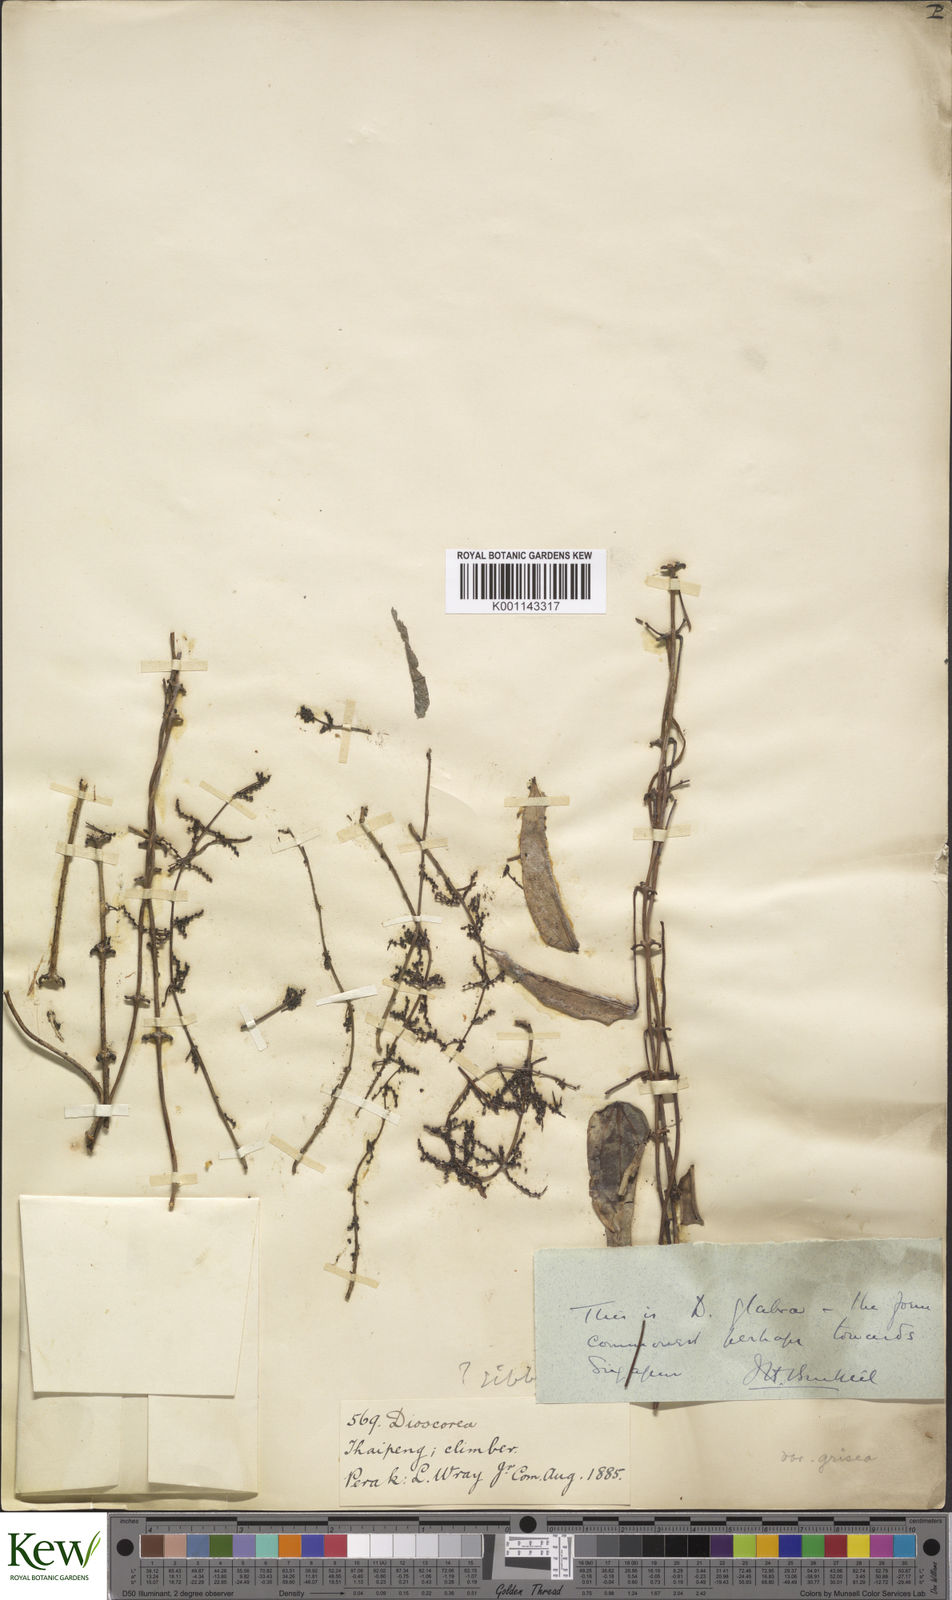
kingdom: Plantae
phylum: Tracheophyta
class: Liliopsida
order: Dioscoreales
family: Dioscoreaceae
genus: Dioscorea
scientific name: Dioscorea glabra
